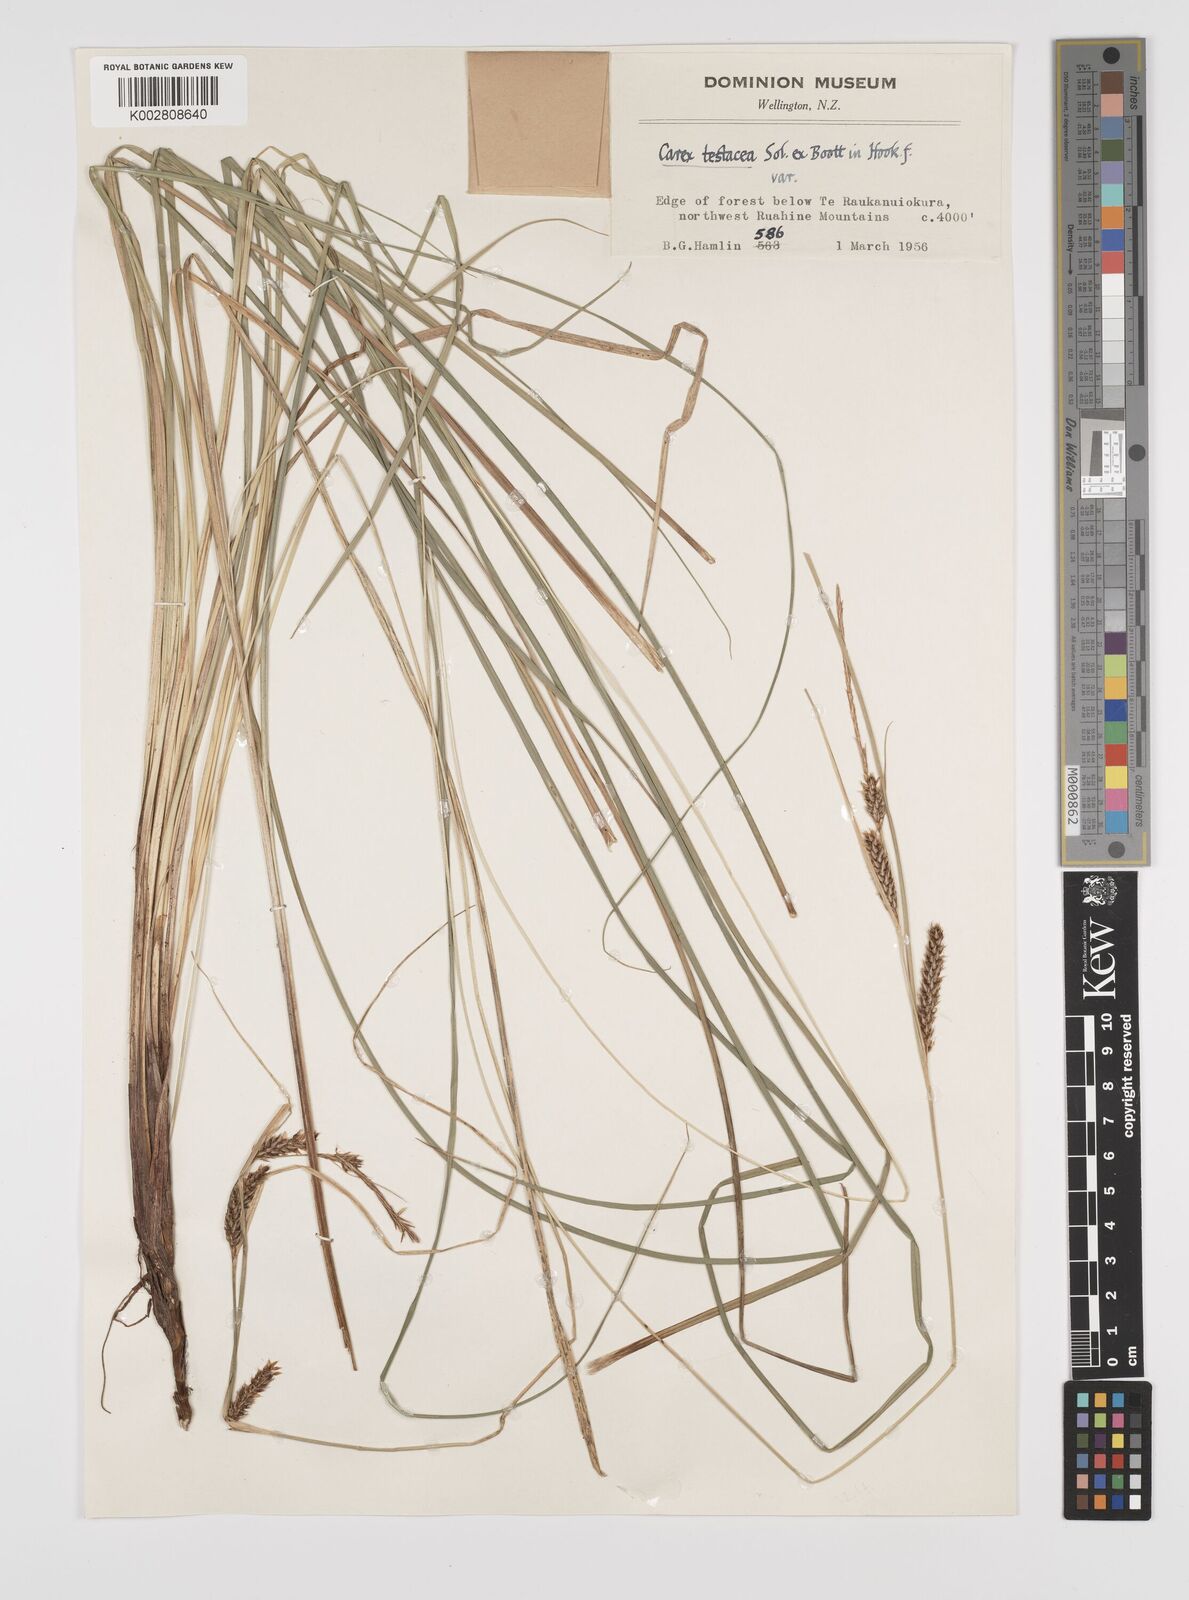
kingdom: Plantae
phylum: Tracheophyta
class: Liliopsida
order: Poales
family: Cyperaceae
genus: Carex
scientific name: Carex testacea
